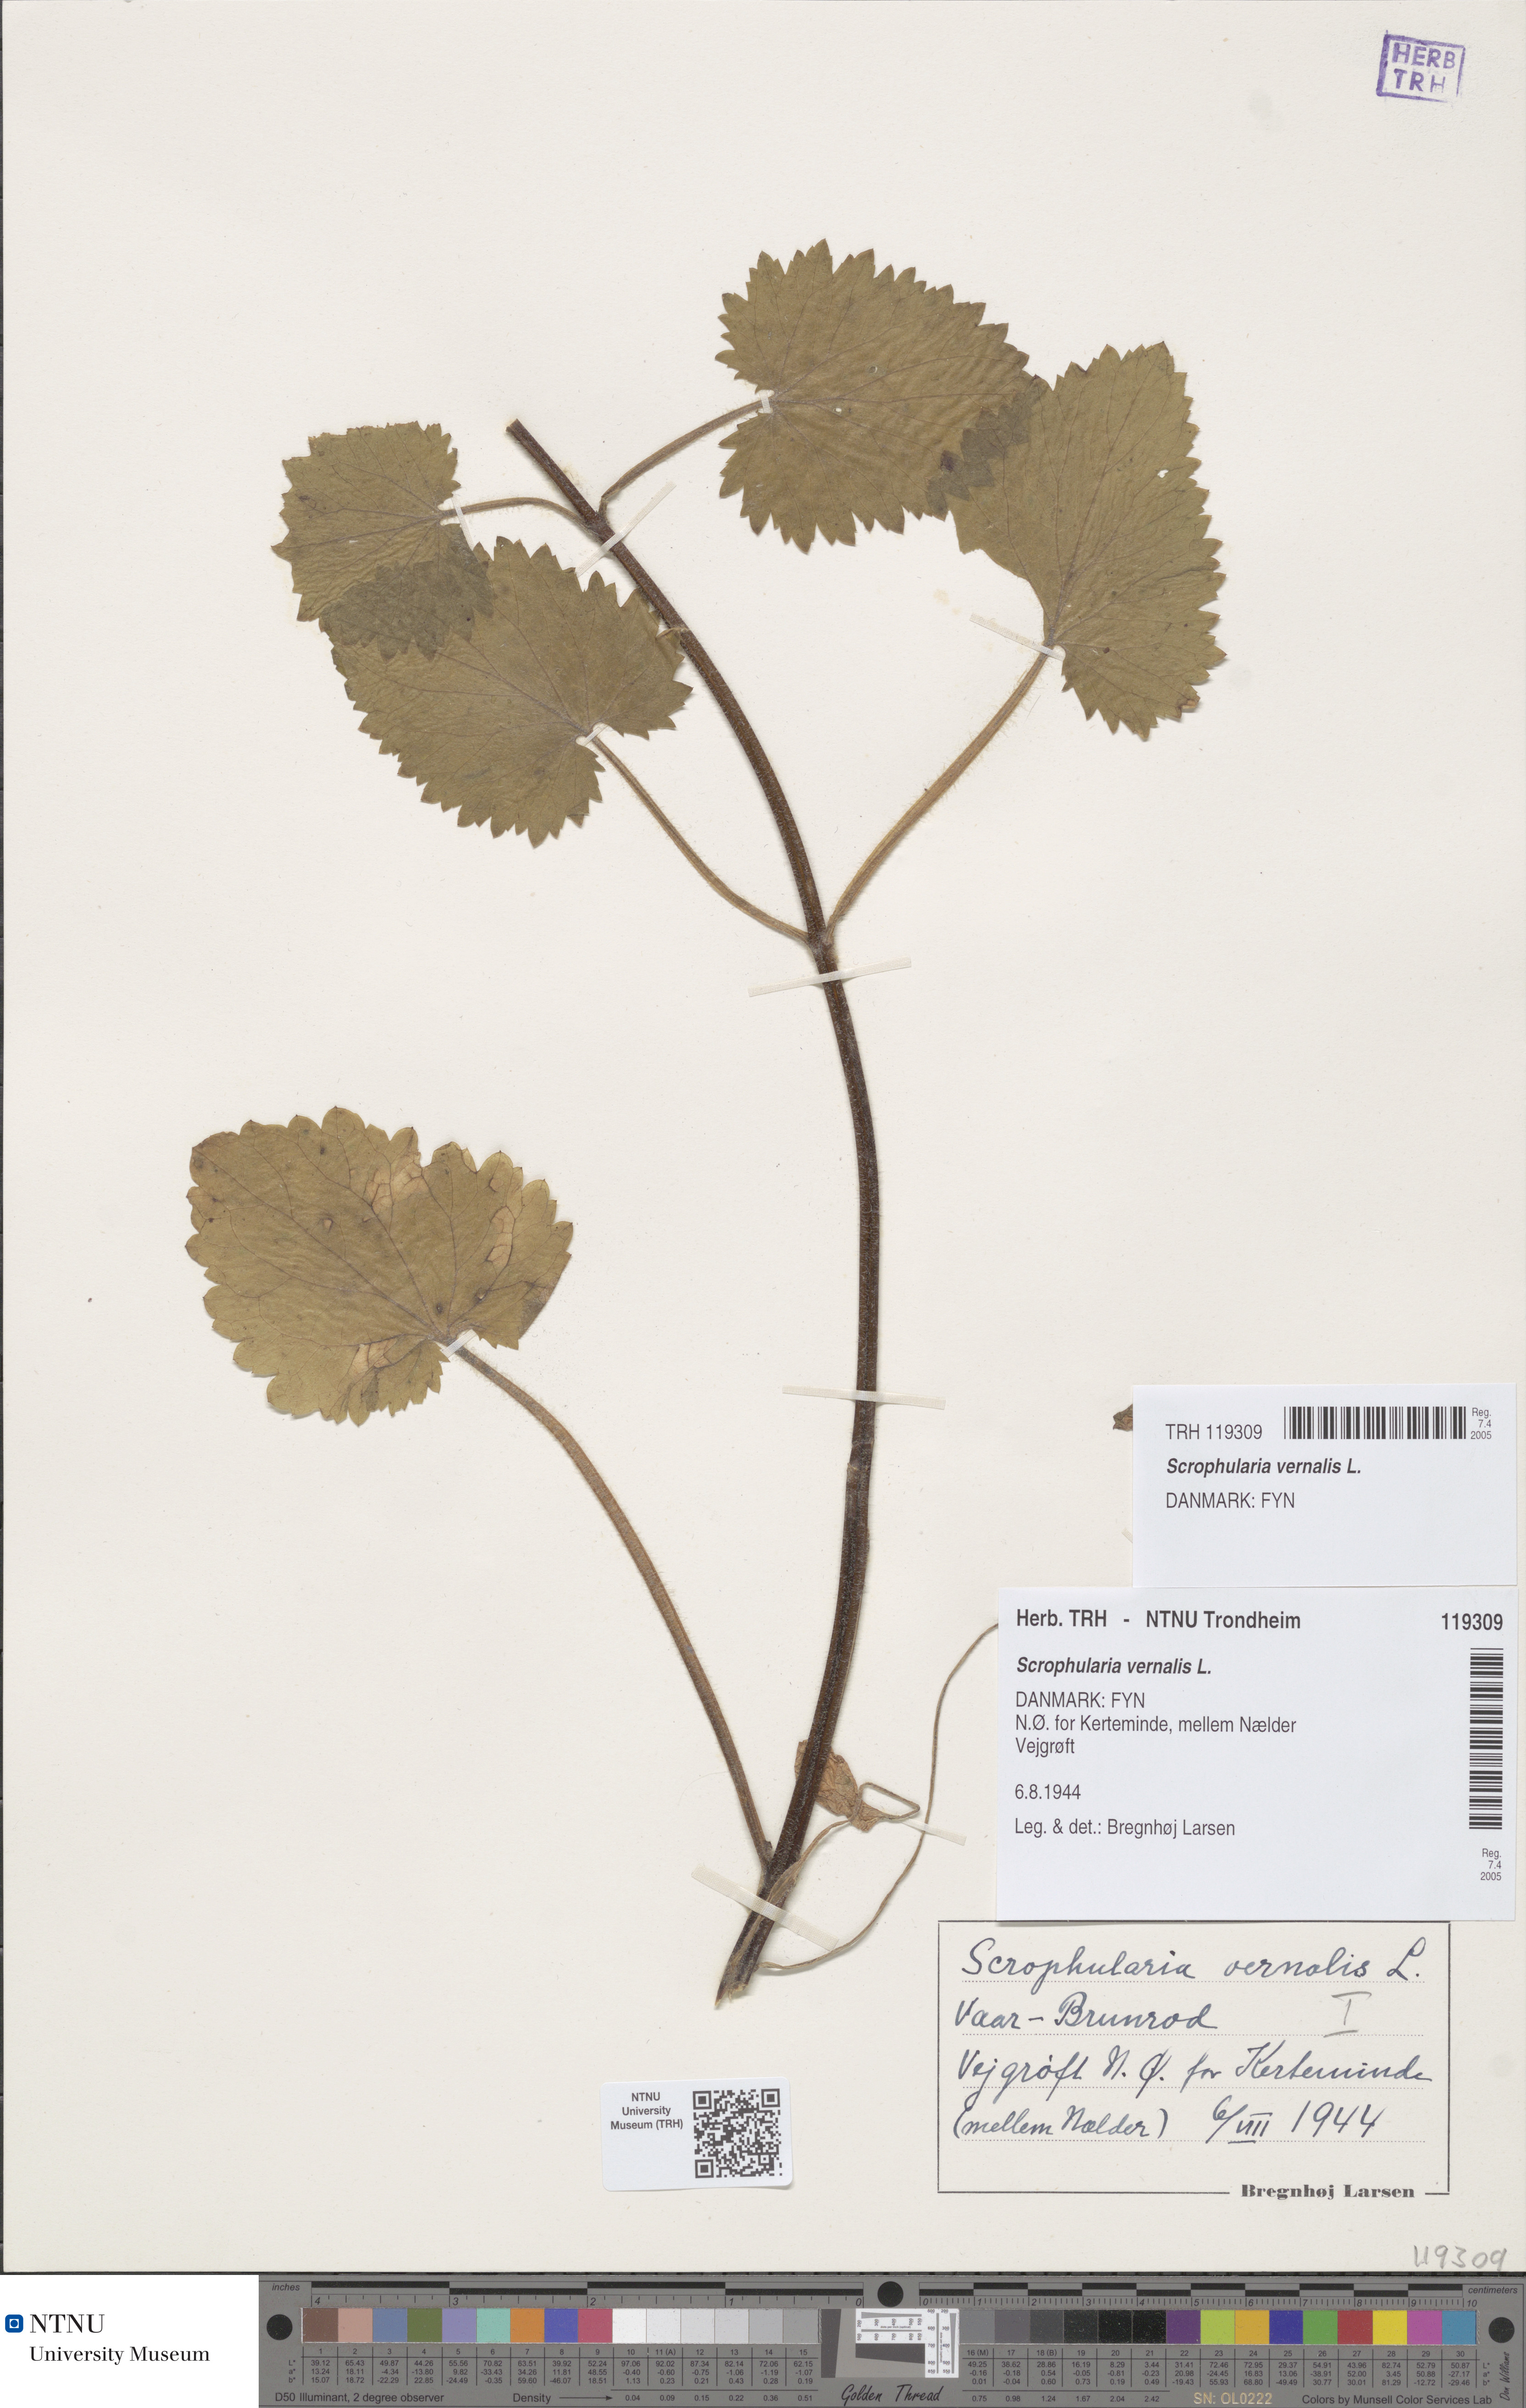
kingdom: Plantae
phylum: Tracheophyta
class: Magnoliopsida
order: Lamiales
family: Scrophulariaceae
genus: Scrophularia
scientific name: Scrophularia vernalis
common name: Yellow figwort
